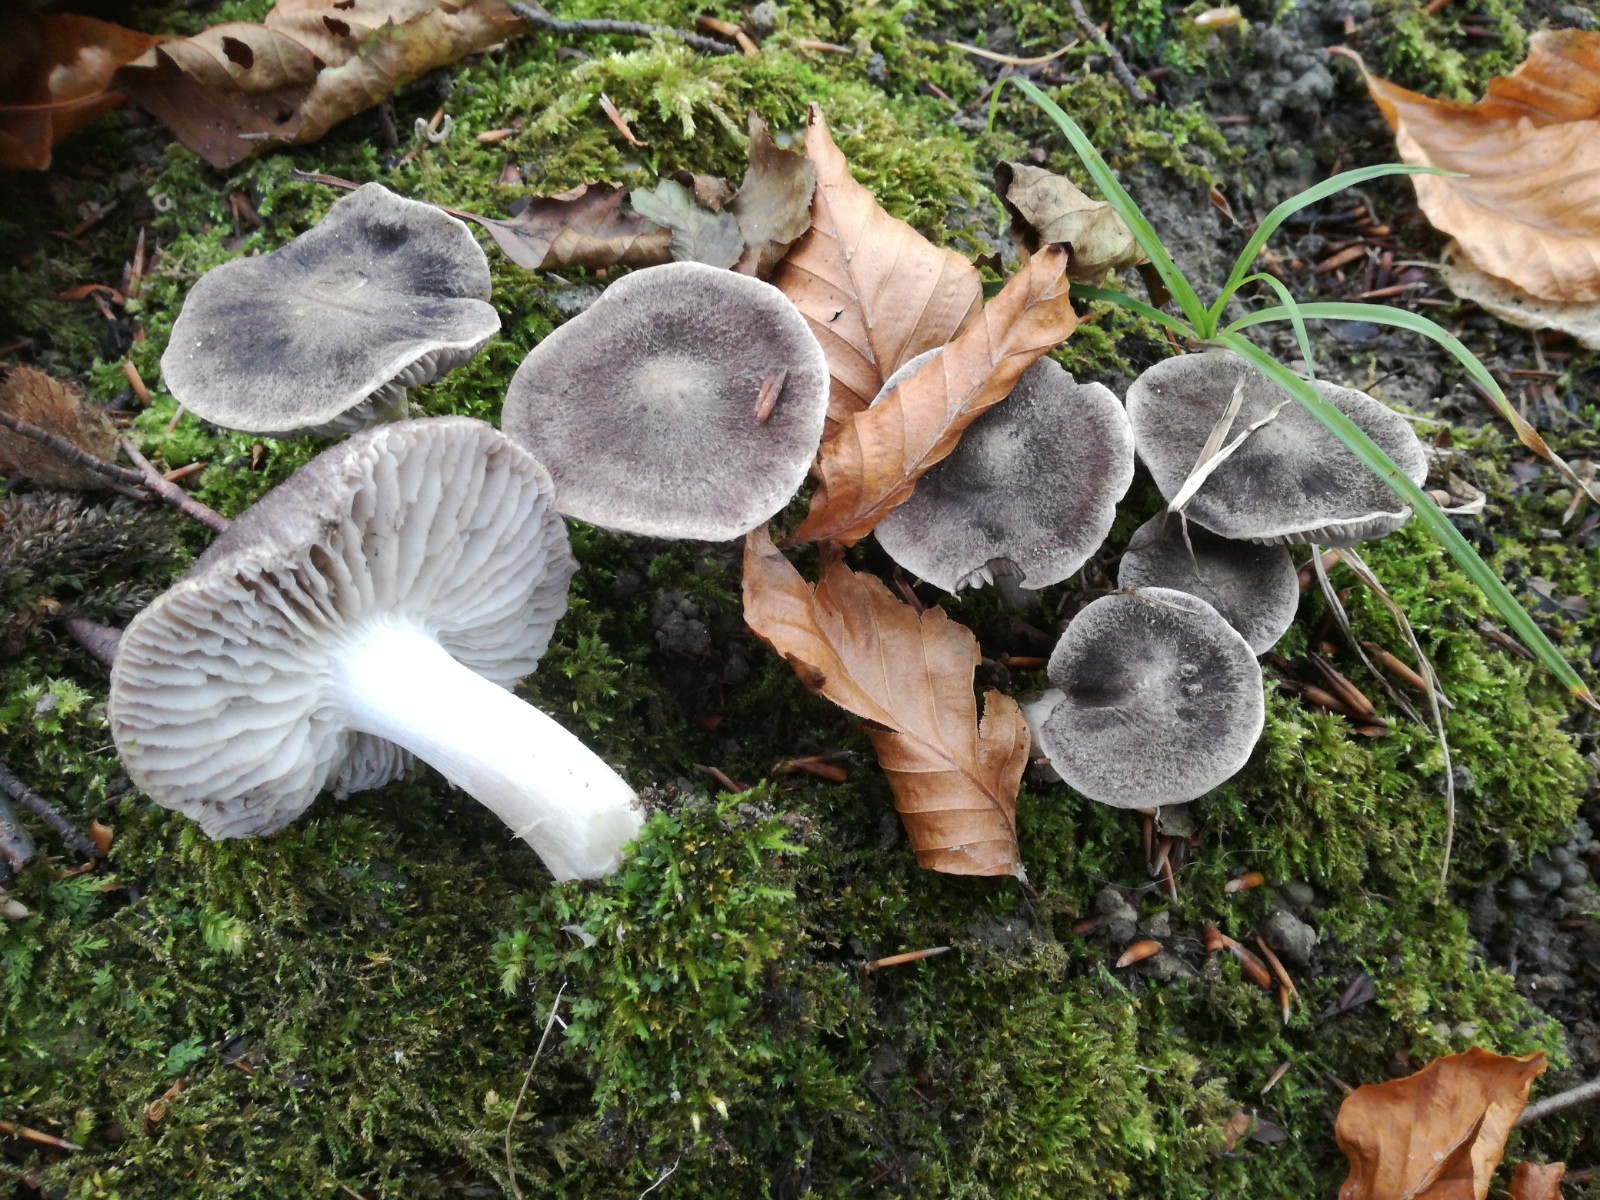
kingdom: Fungi
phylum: Basidiomycota
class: Agaricomycetes
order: Agaricales
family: Tricholomataceae
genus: Tricholoma
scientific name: Tricholoma terreum
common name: jordfarvet ridderhat
